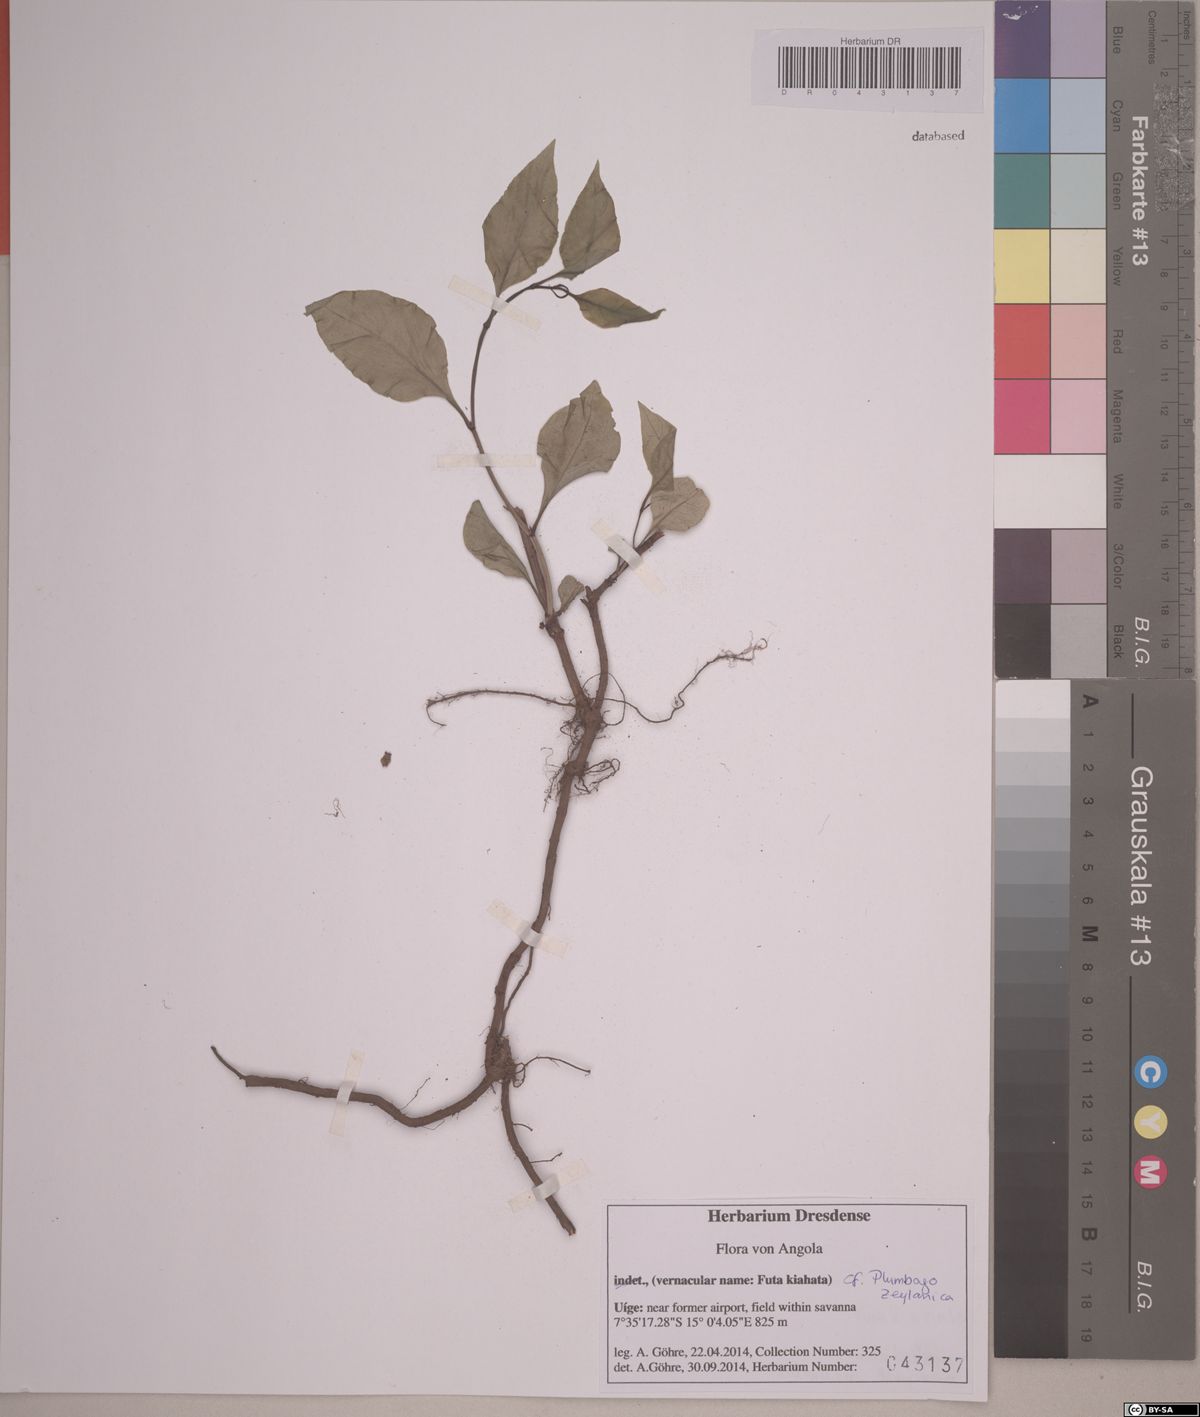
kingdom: Plantae
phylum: Tracheophyta
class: Magnoliopsida
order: Caryophyllales
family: Plumbaginaceae
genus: Plumbago
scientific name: Plumbago zeylanica
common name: Doctorbush
